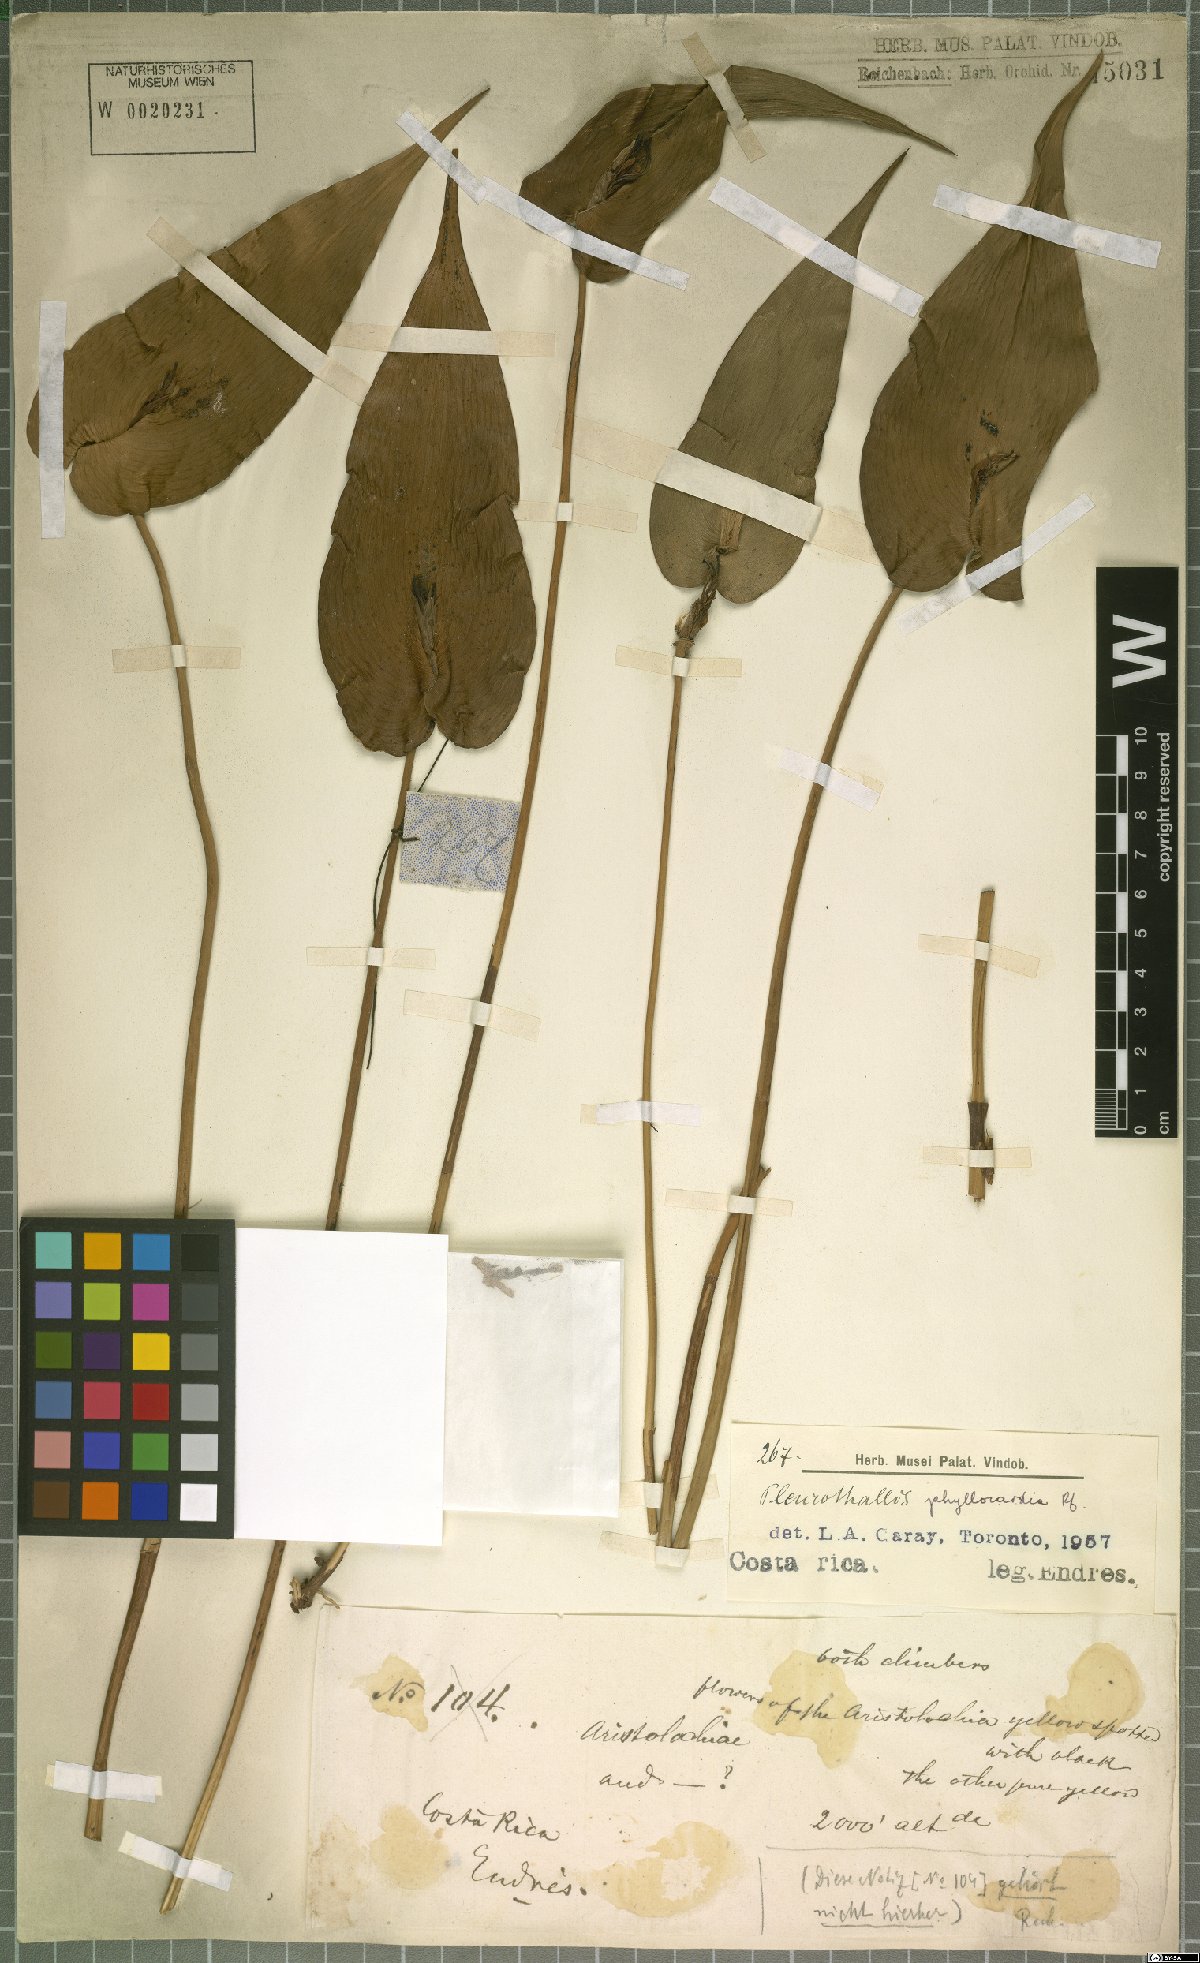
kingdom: Plantae
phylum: Tracheophyta
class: Liliopsida
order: Asparagales
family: Orchidaceae
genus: Pleurothallis
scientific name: Pleurothallis phyllocardia
